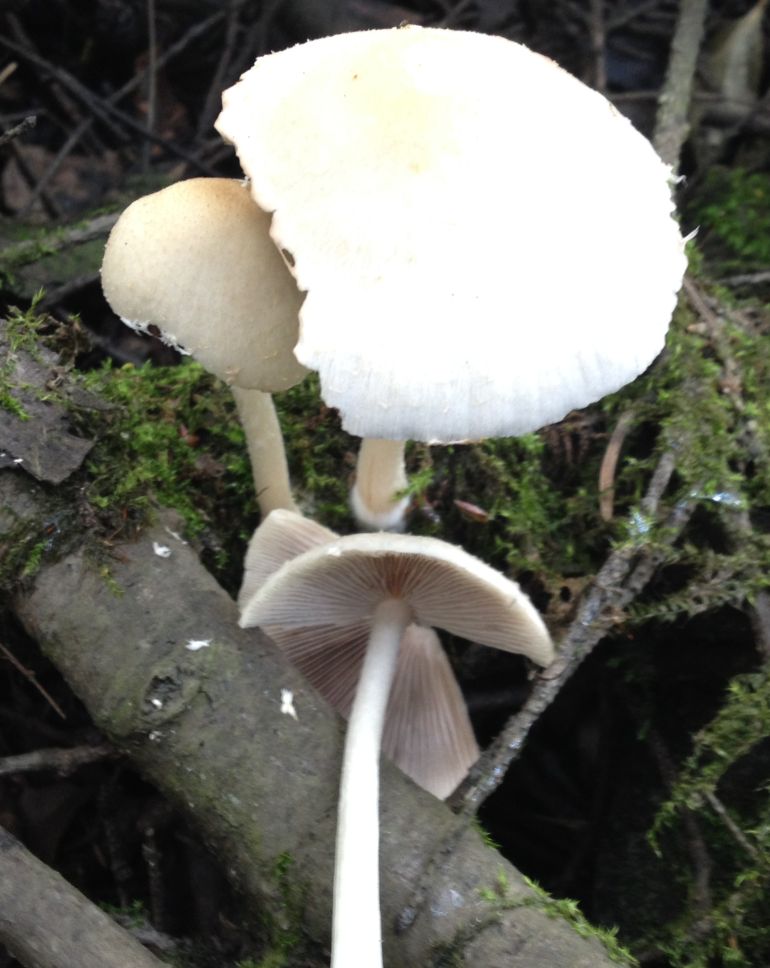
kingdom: Fungi
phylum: Basidiomycota
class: Agaricomycetes
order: Agaricales
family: Psathyrellaceae
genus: Candolleomyces
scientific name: Candolleomyces candolleanus
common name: Candolles mørkhat
